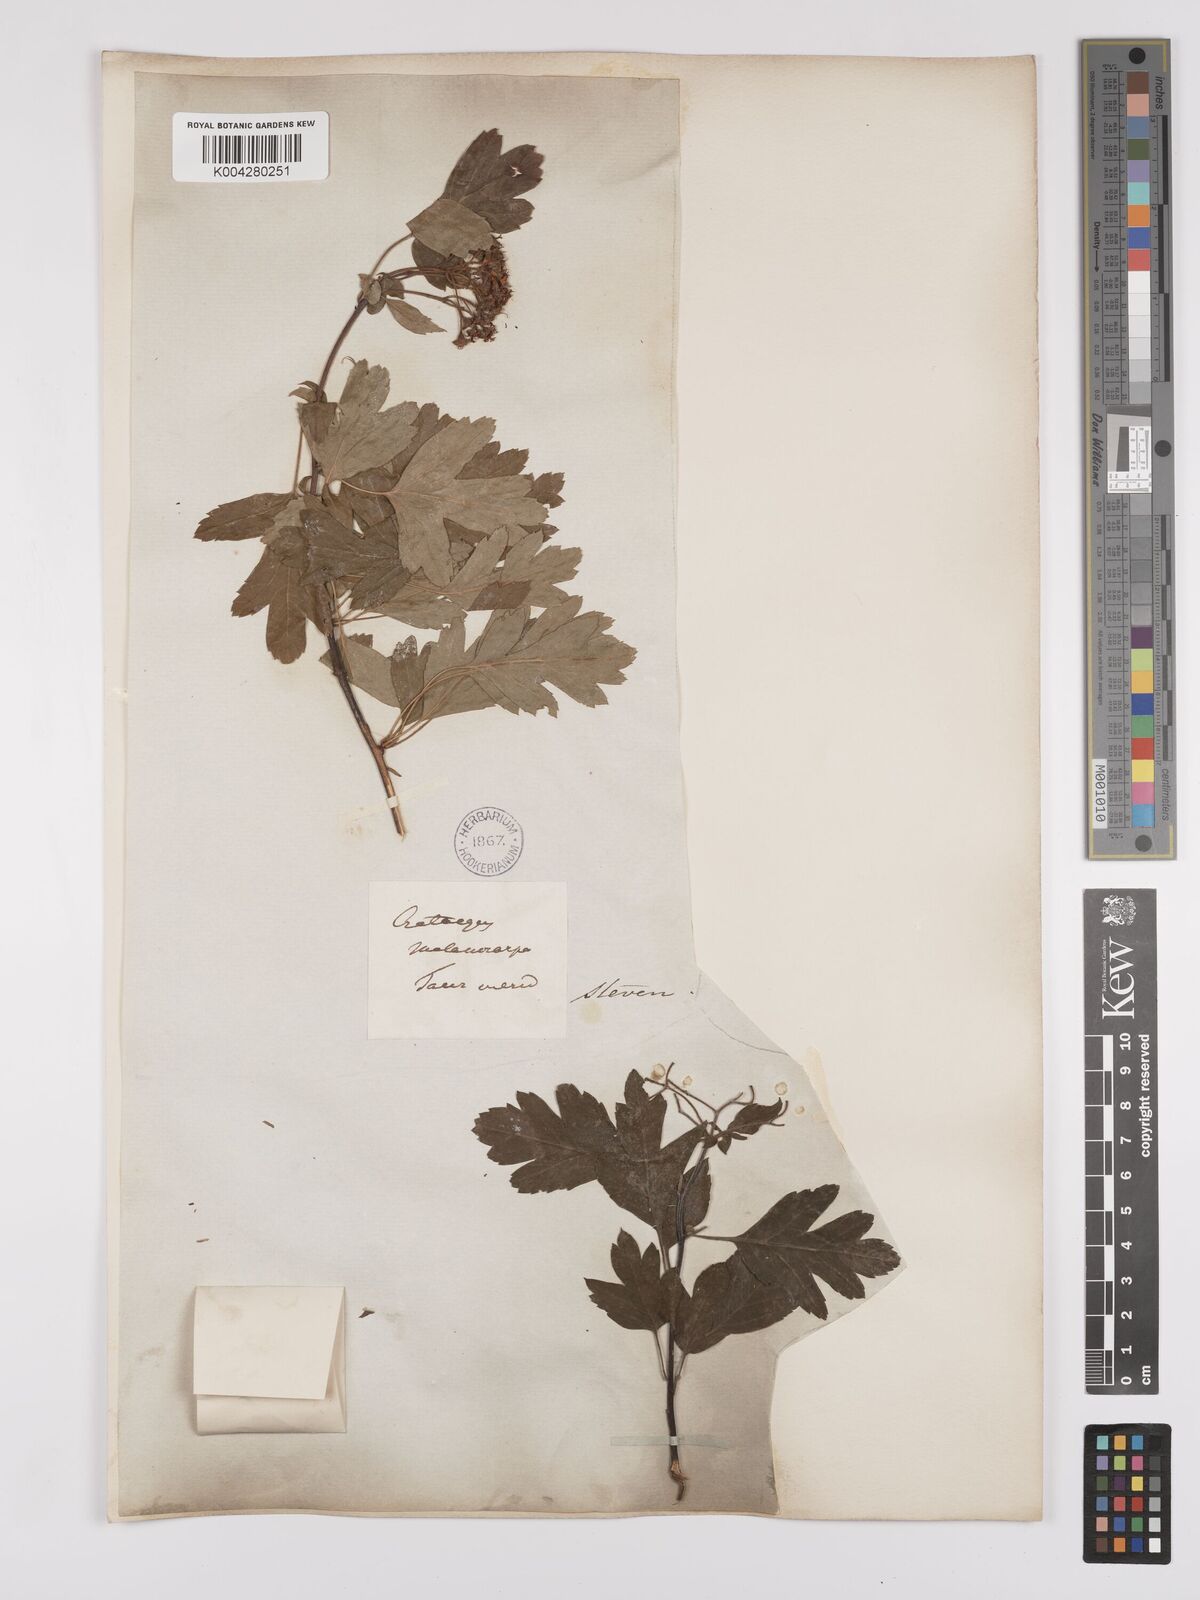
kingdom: Plantae
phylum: Tracheophyta
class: Magnoliopsida
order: Rosales
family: Rosaceae
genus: Crataegus
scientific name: Crataegus pentagyna
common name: Small-flowered black hawthorn
